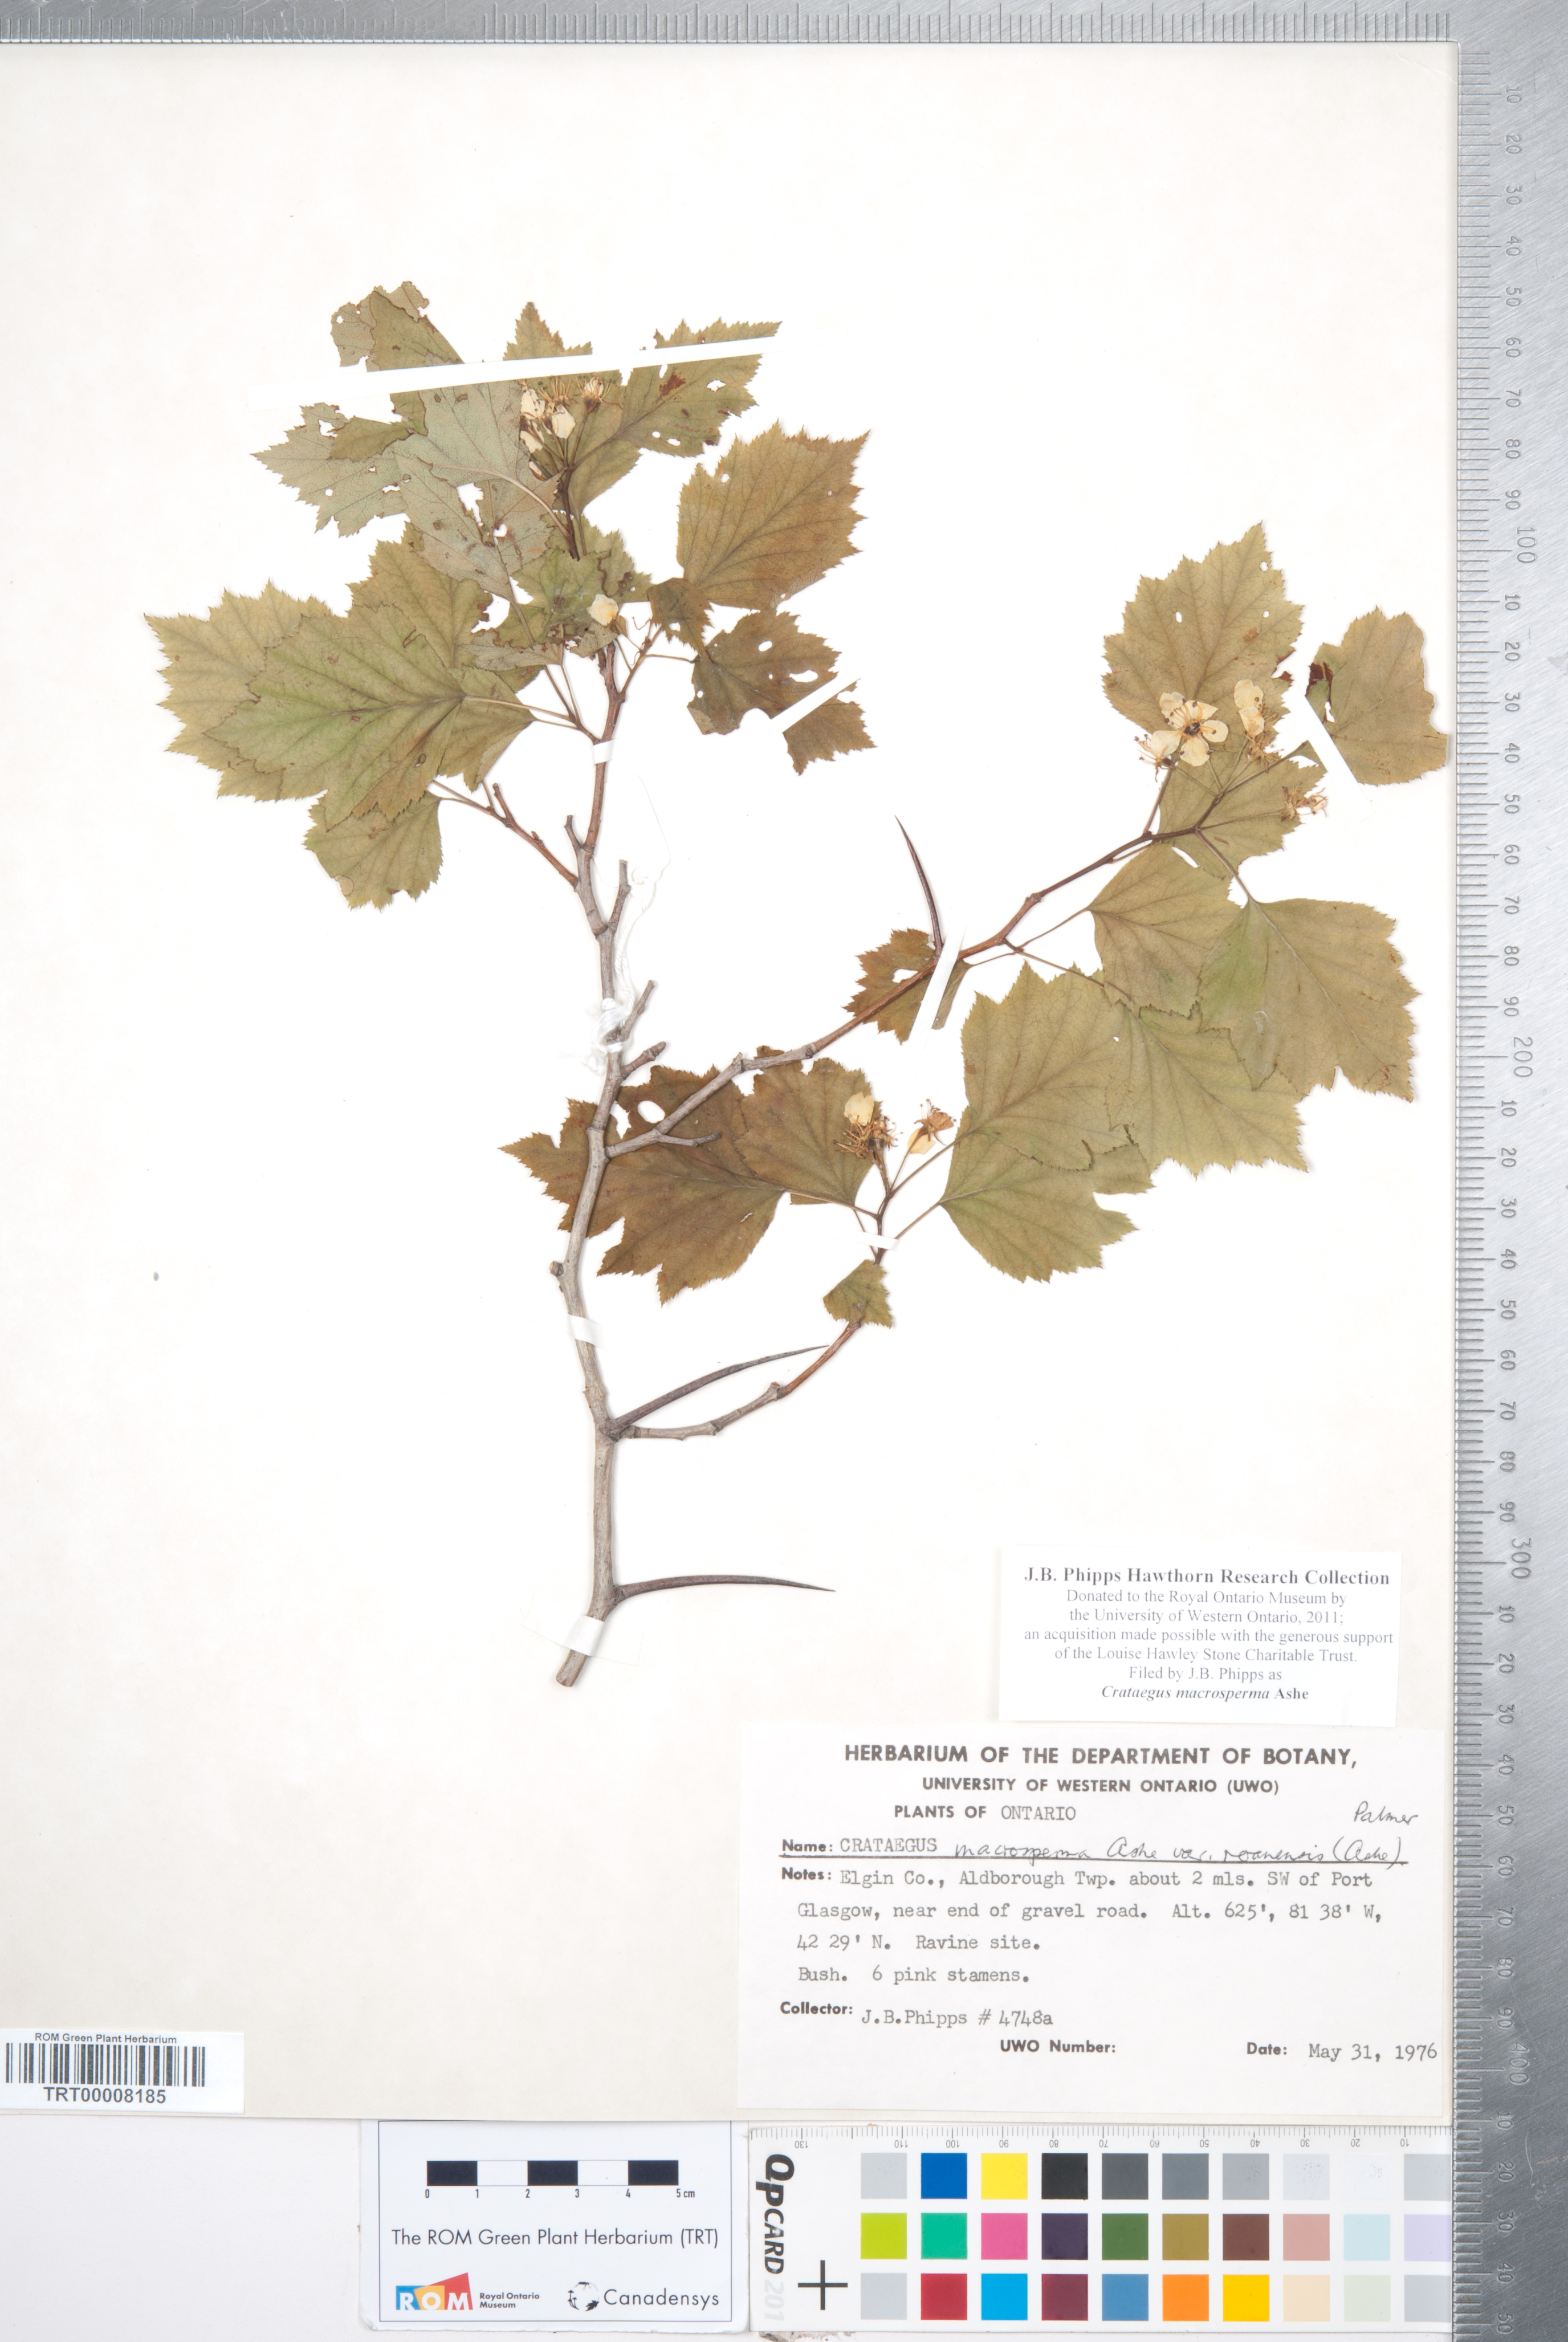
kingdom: Plantae
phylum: Tracheophyta
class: Magnoliopsida
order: Rosales
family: Rosaceae
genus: Crataegus
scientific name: Crataegus macrosperma
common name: Variable hawthorn
